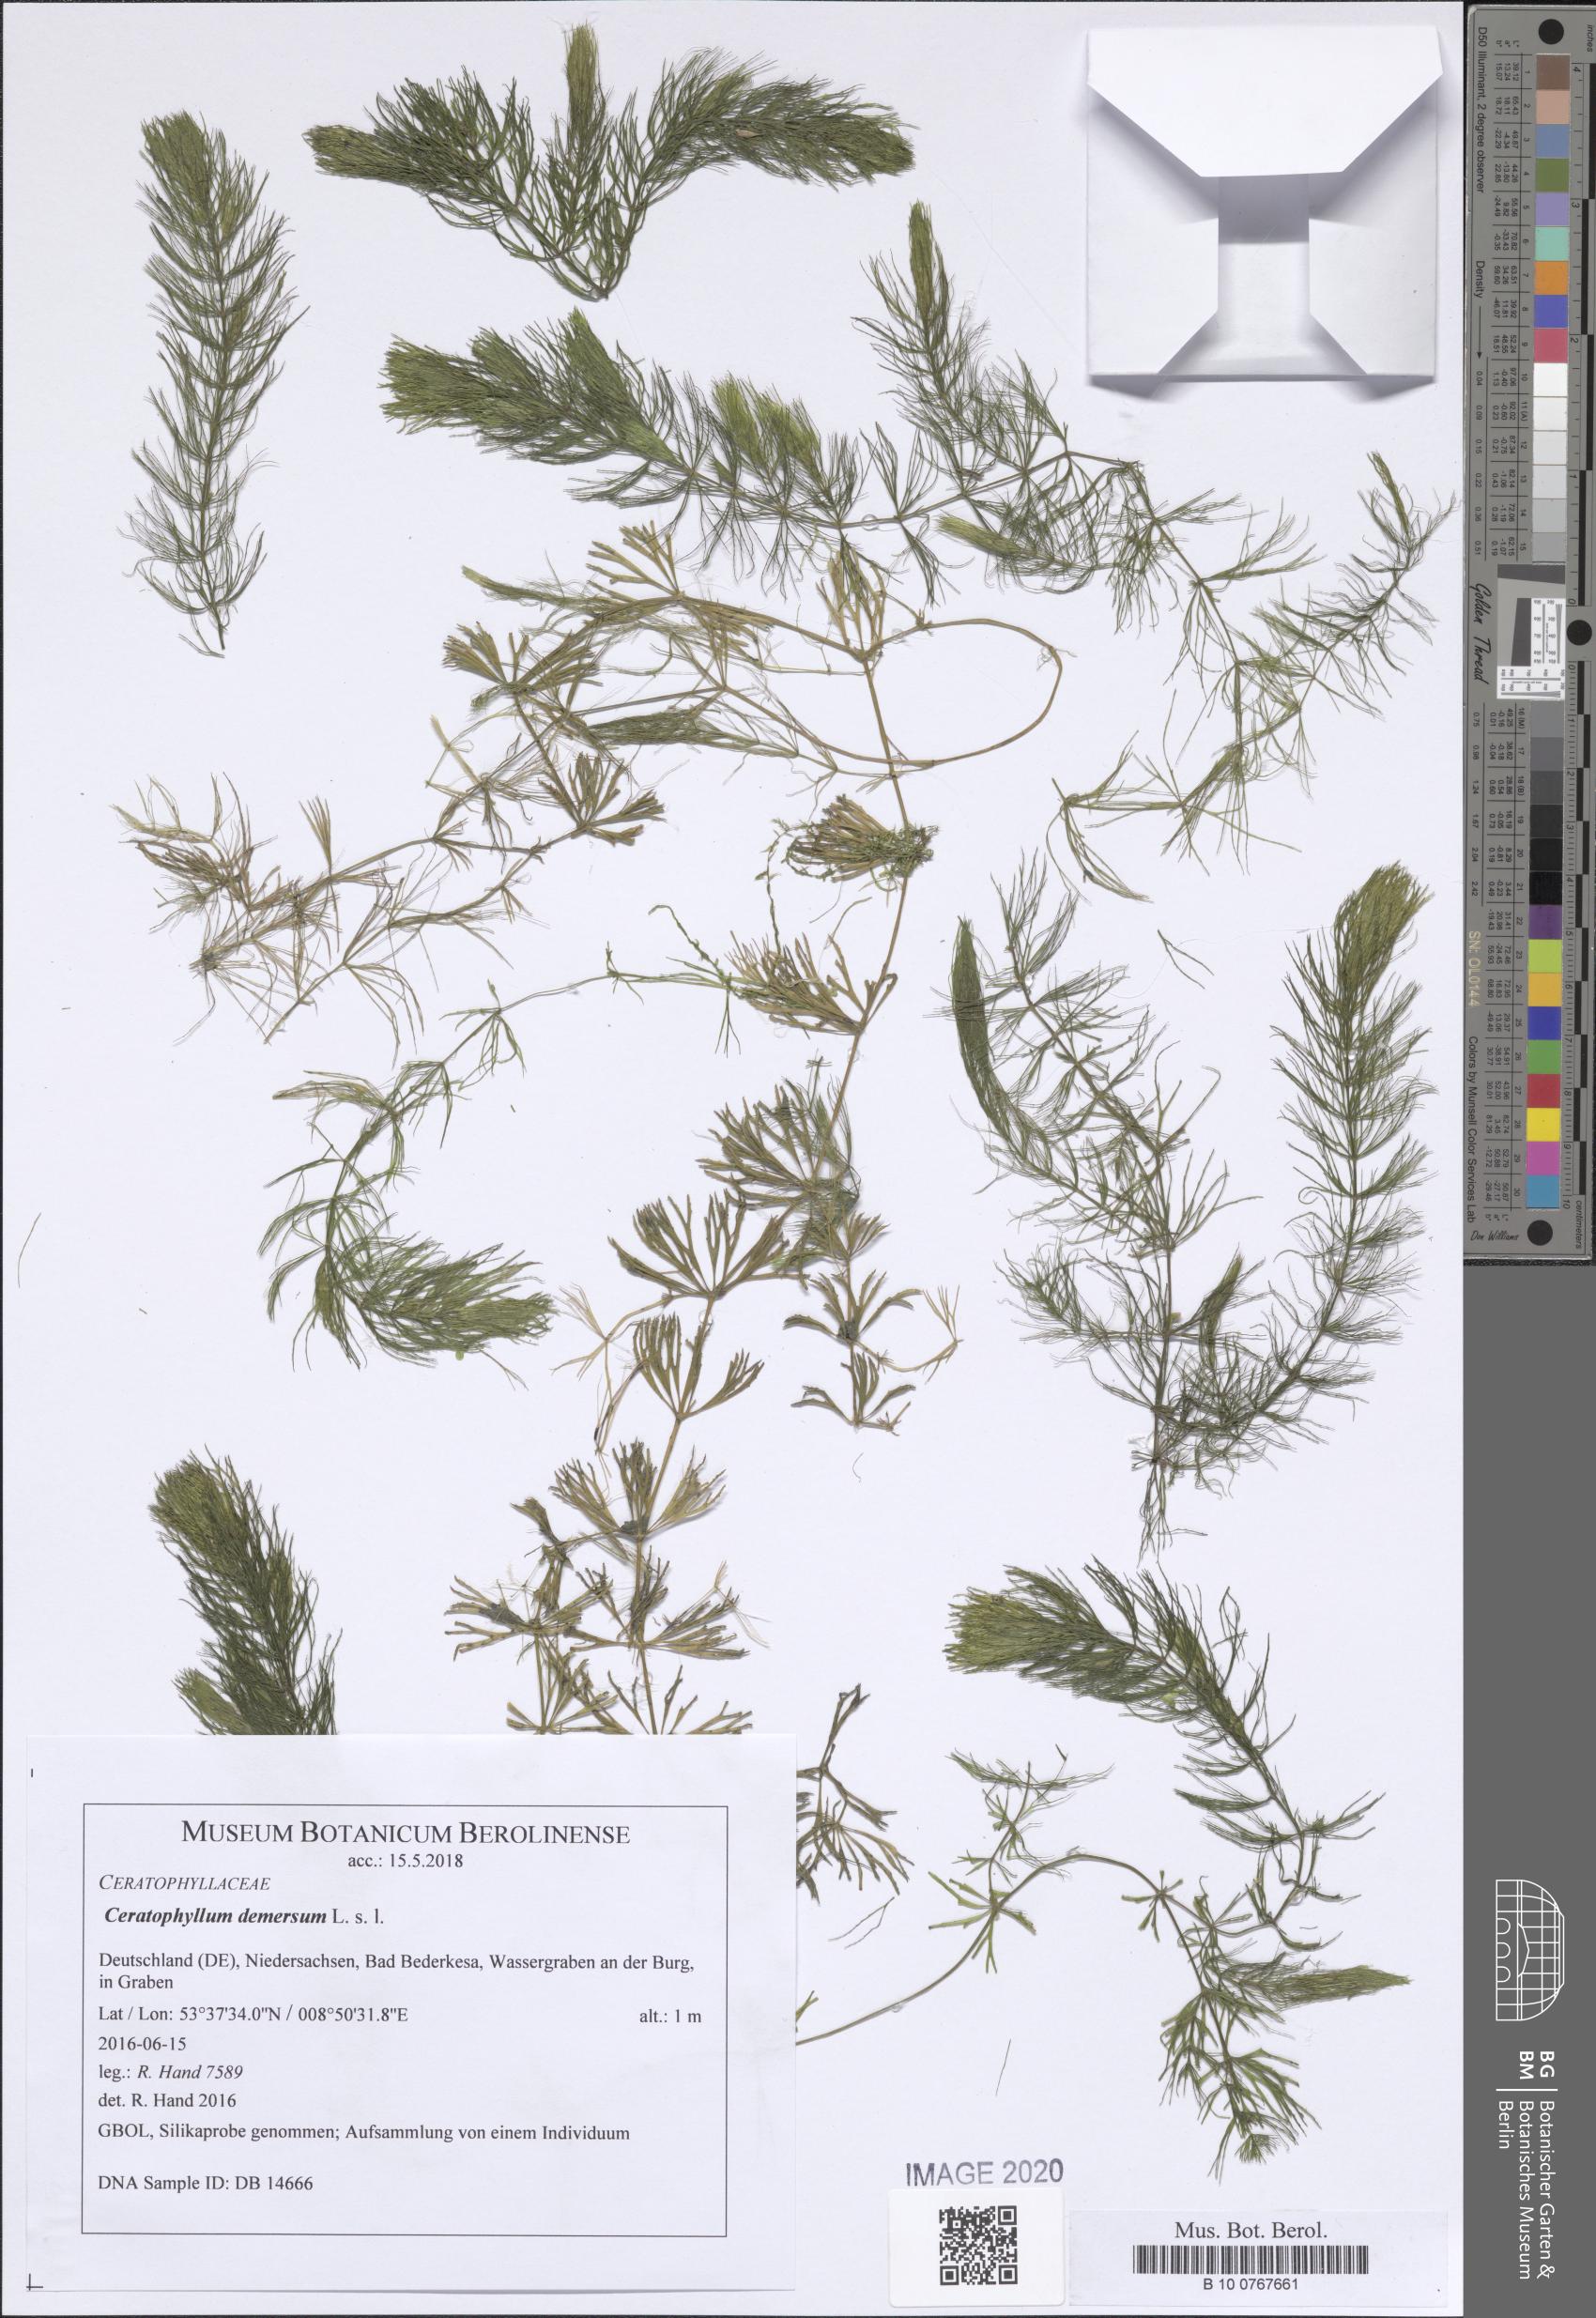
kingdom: Plantae
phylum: Tracheophyta
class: Magnoliopsida
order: Ceratophyllales
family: Ceratophyllaceae
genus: Ceratophyllum
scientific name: Ceratophyllum demersum
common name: Rigid hornwort
